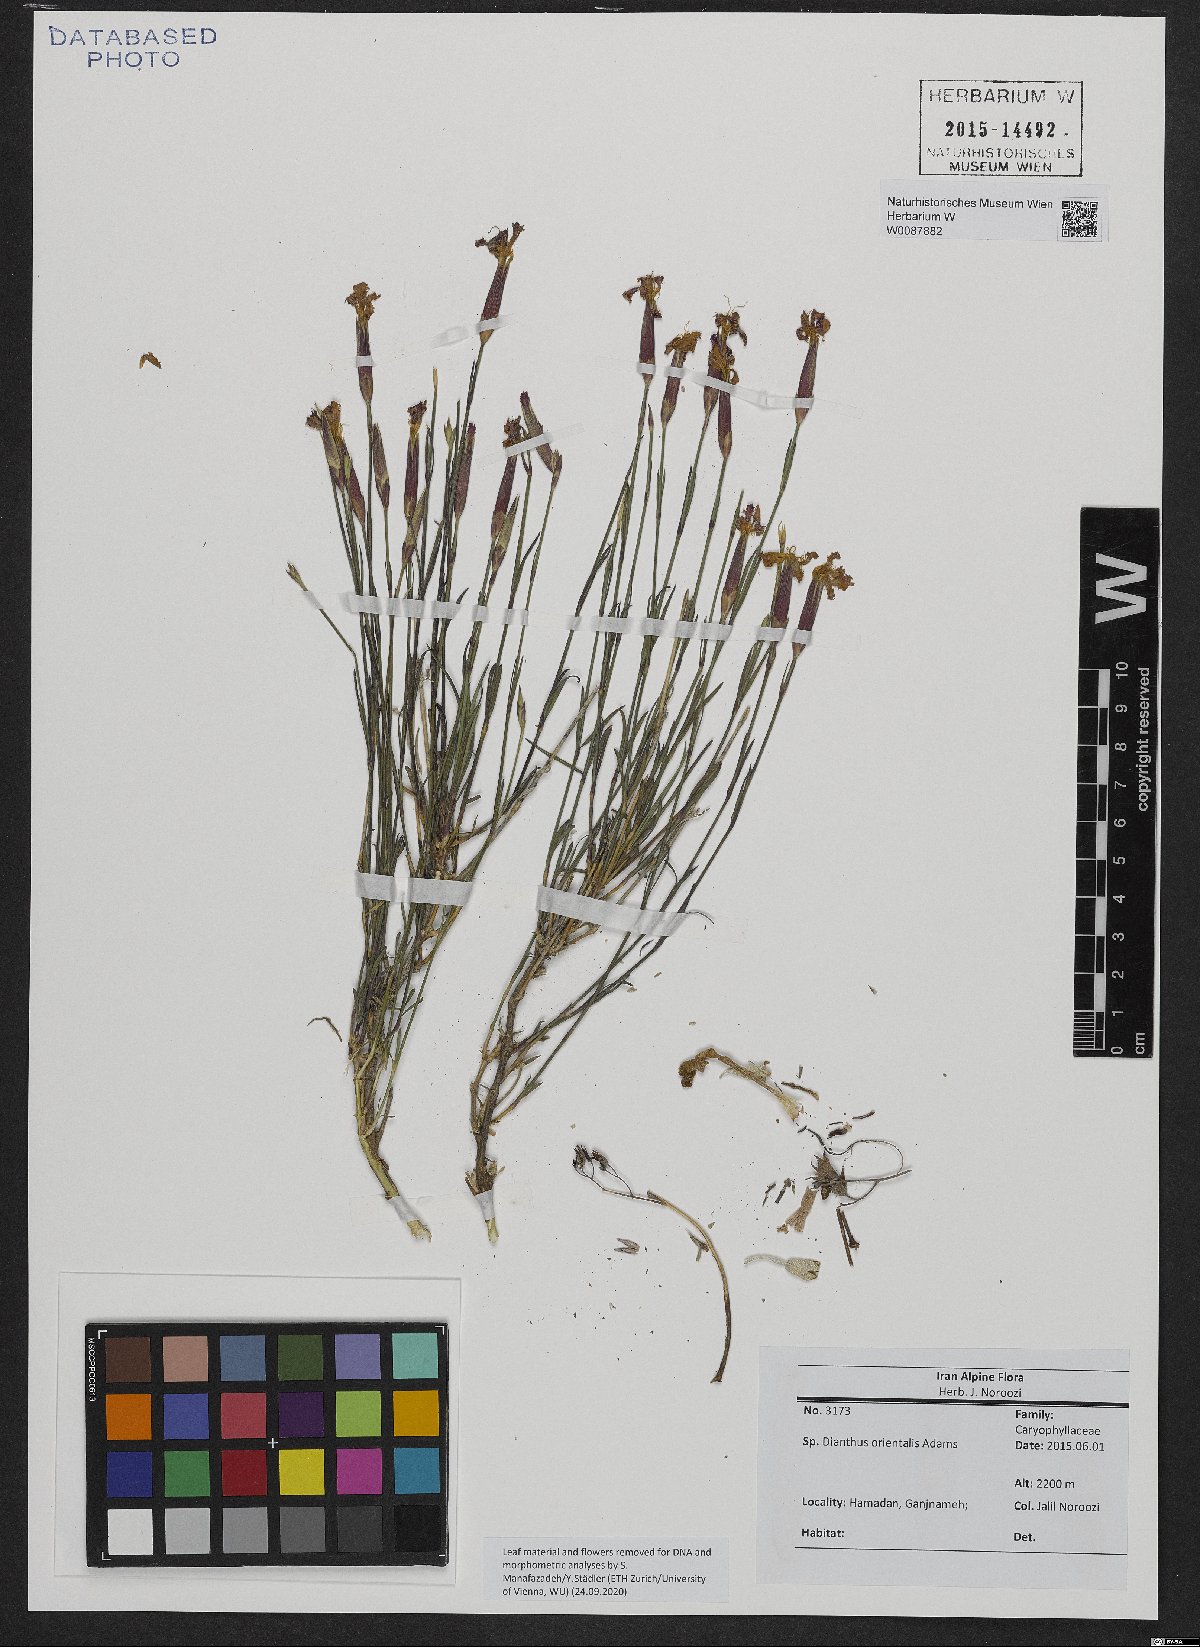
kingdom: Plantae
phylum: Tracheophyta
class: Magnoliopsida
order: Caryophyllales
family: Caryophyllaceae
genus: Dianthus
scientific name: Dianthus orientalis
